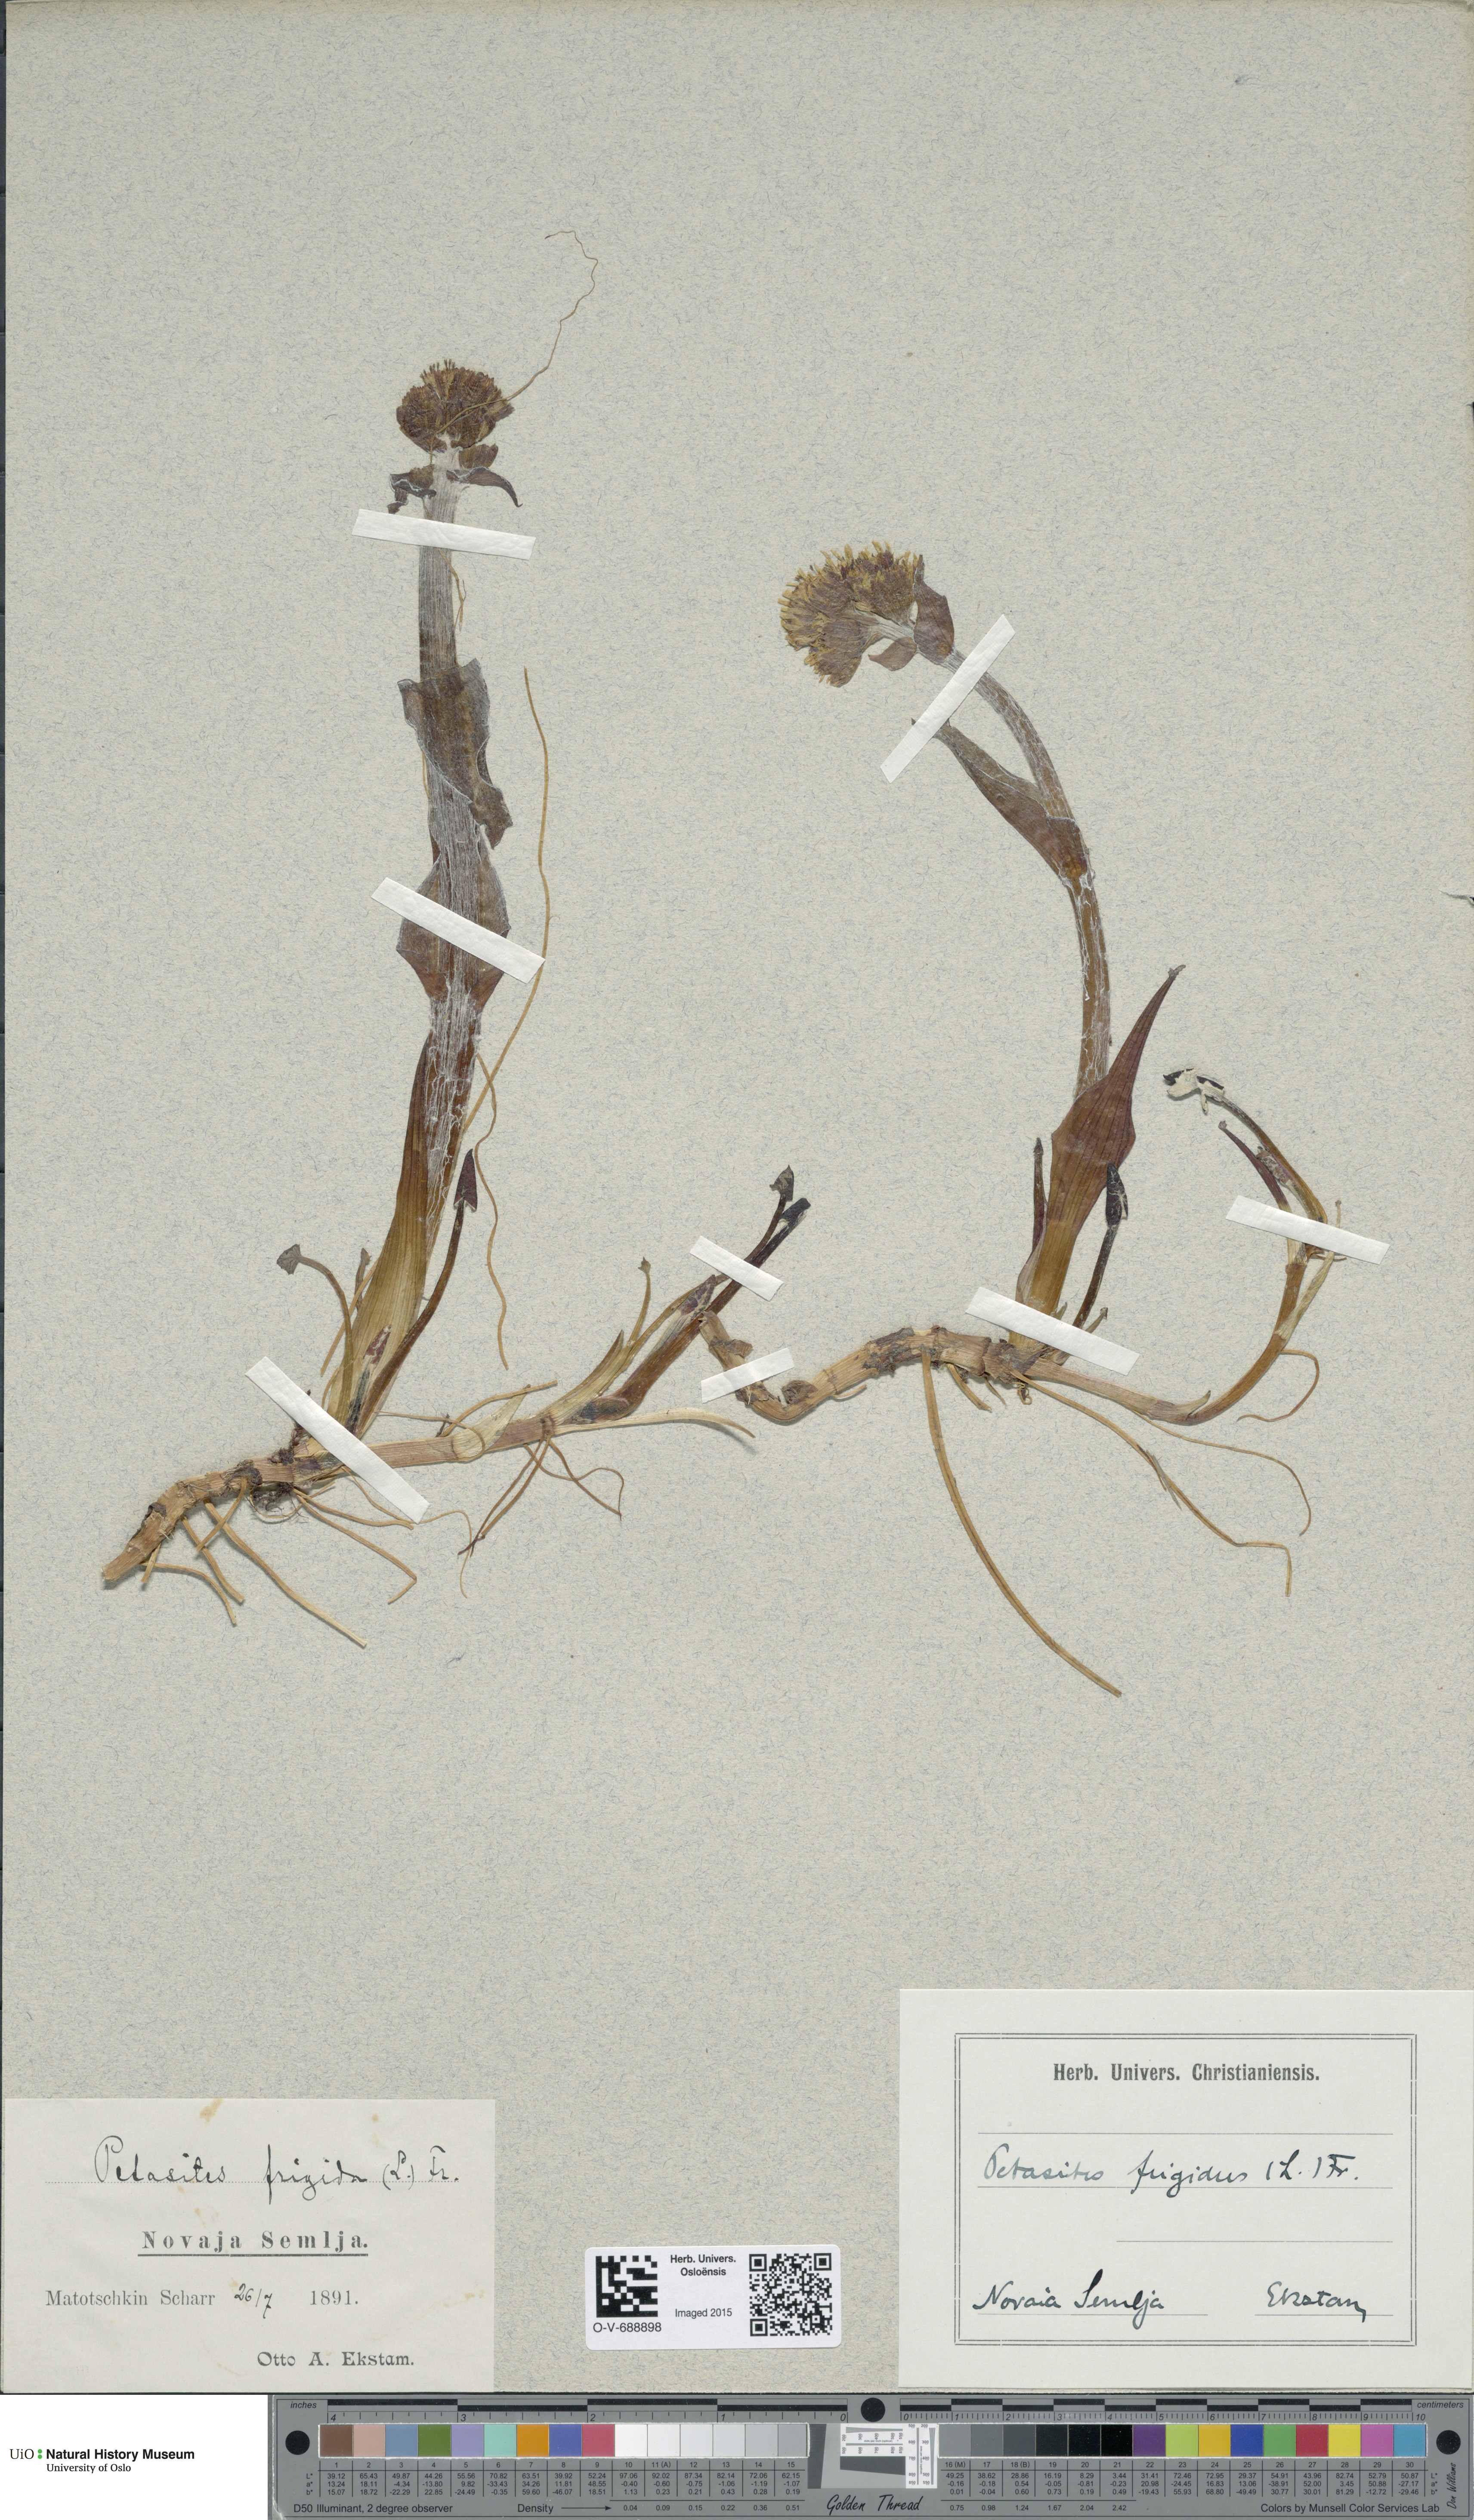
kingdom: Plantae
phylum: Tracheophyta
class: Magnoliopsida
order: Asterales
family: Asteraceae
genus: Petasites
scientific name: Petasites frigidus
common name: Arctic butterbur
